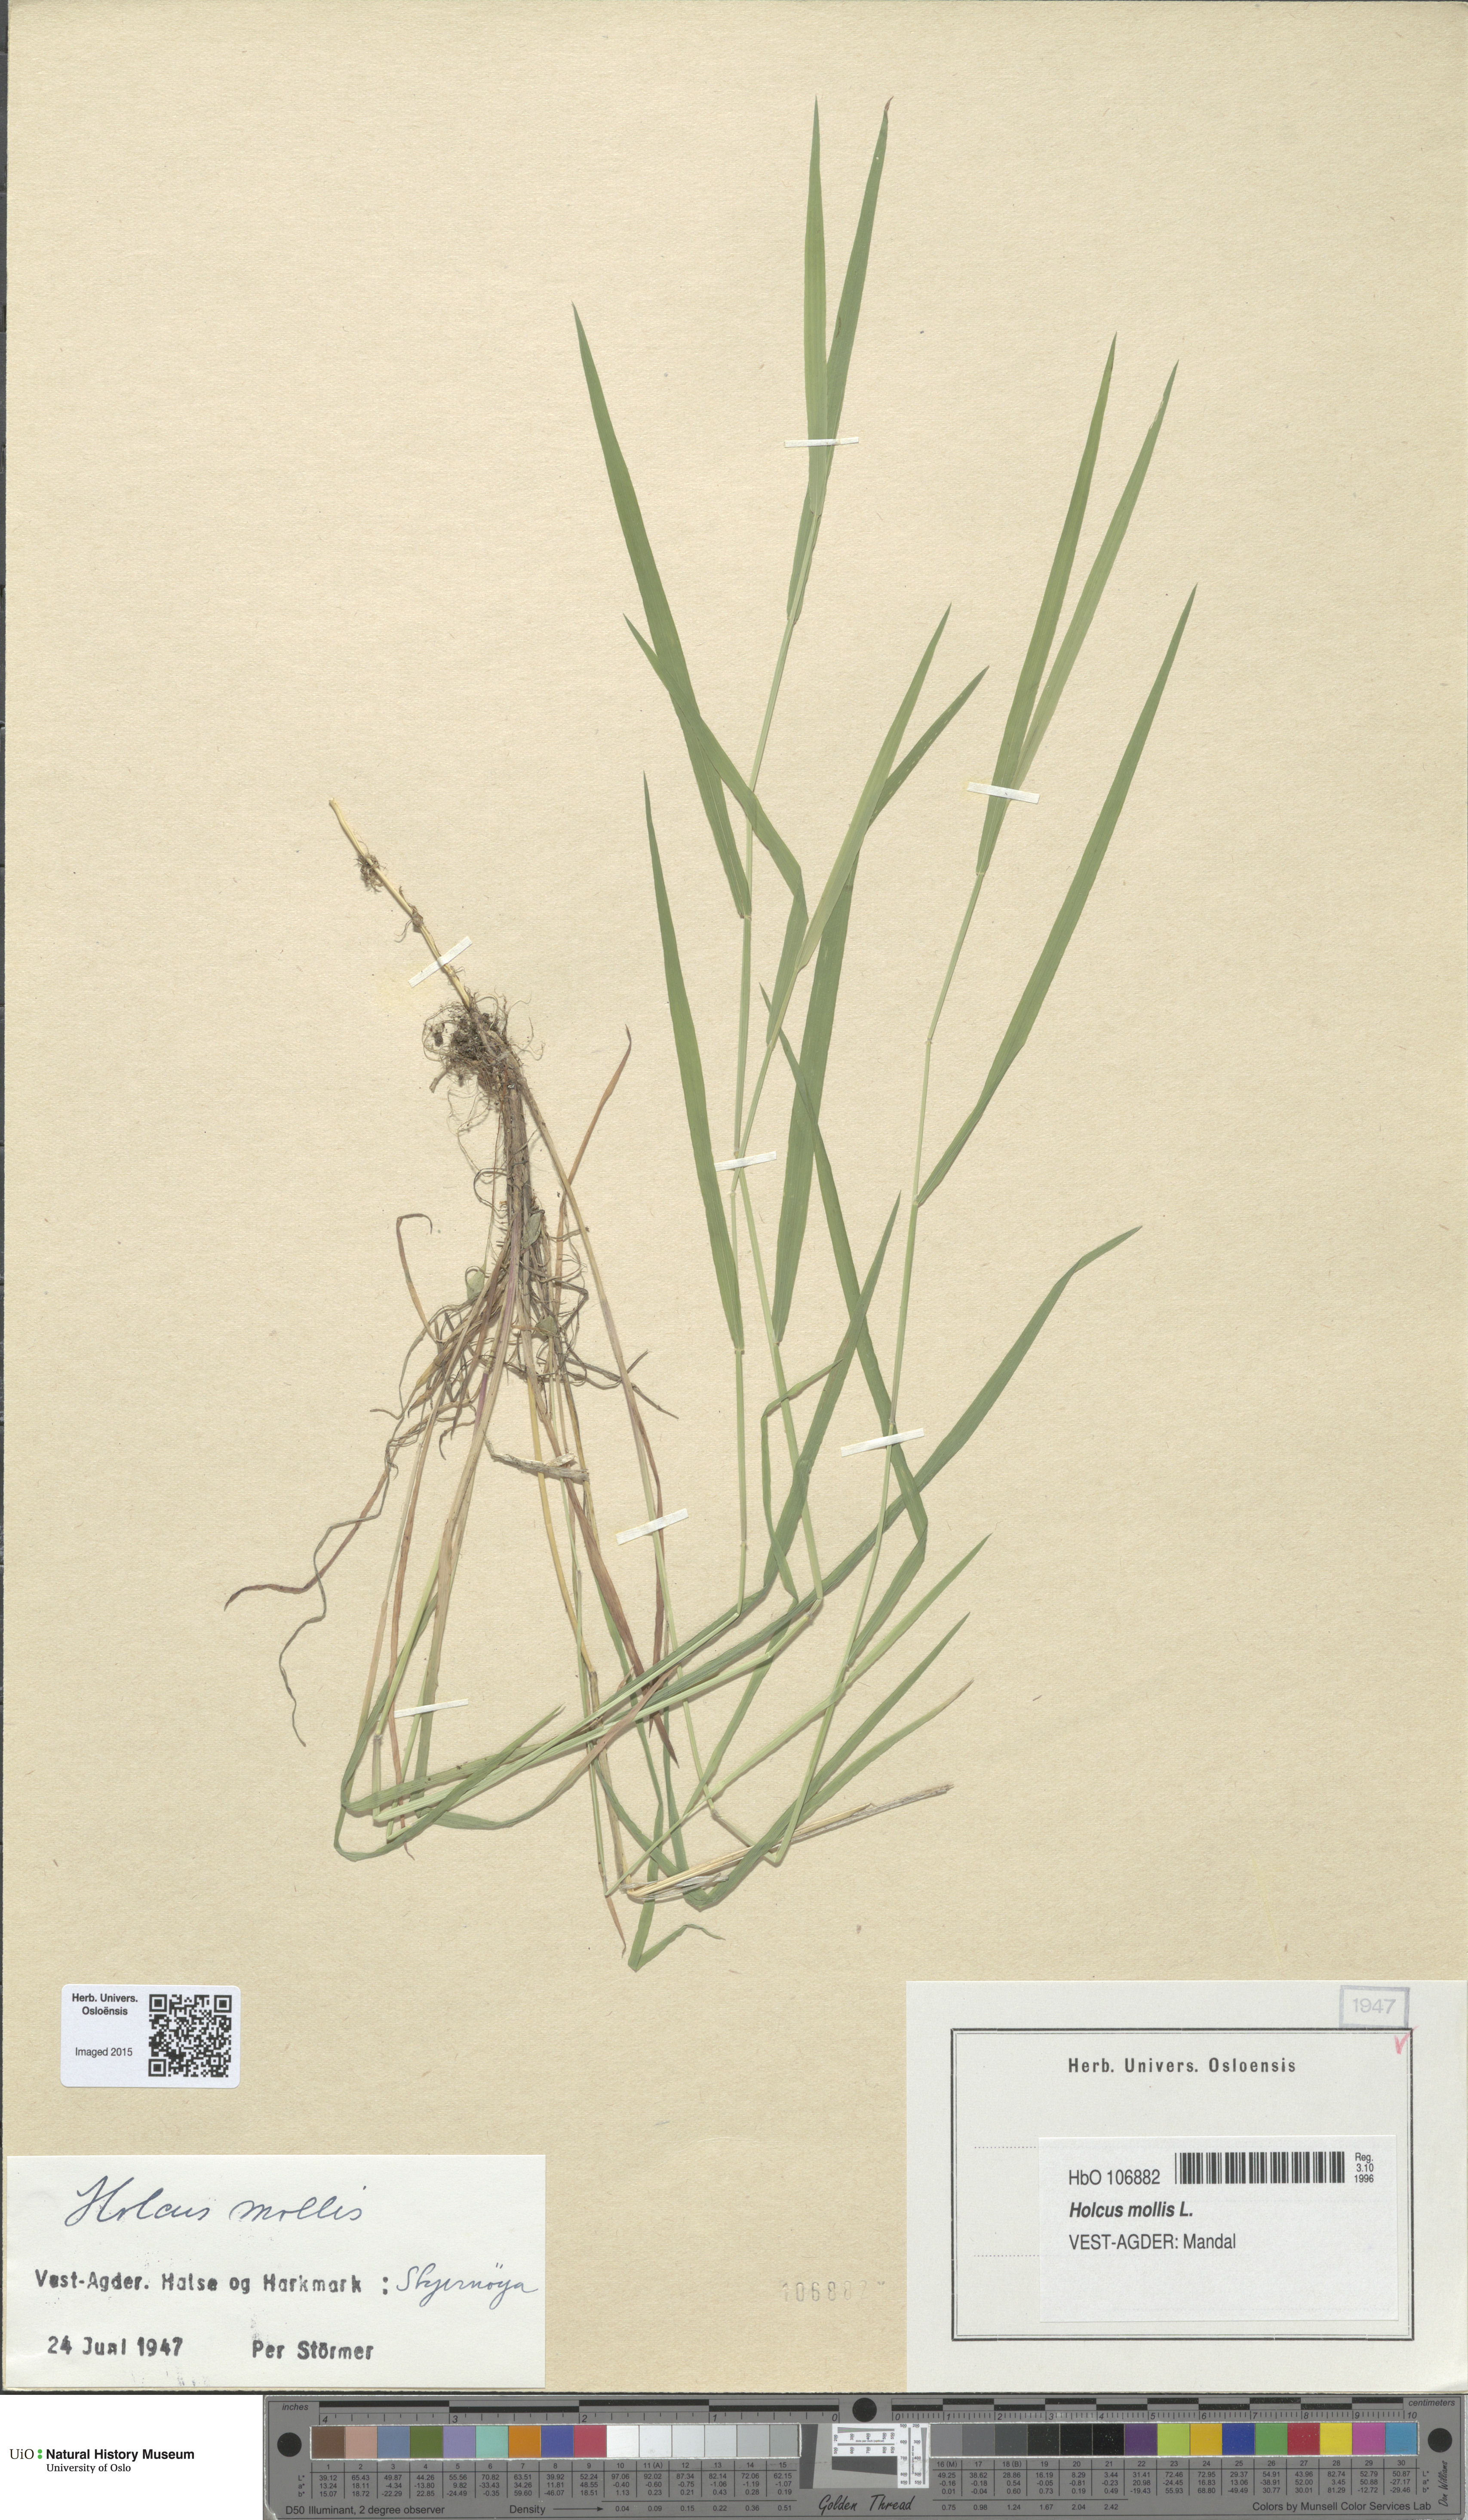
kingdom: Plantae
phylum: Tracheophyta
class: Liliopsida
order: Poales
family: Poaceae
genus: Holcus
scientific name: Holcus mollis
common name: Creeping velvetgrass
